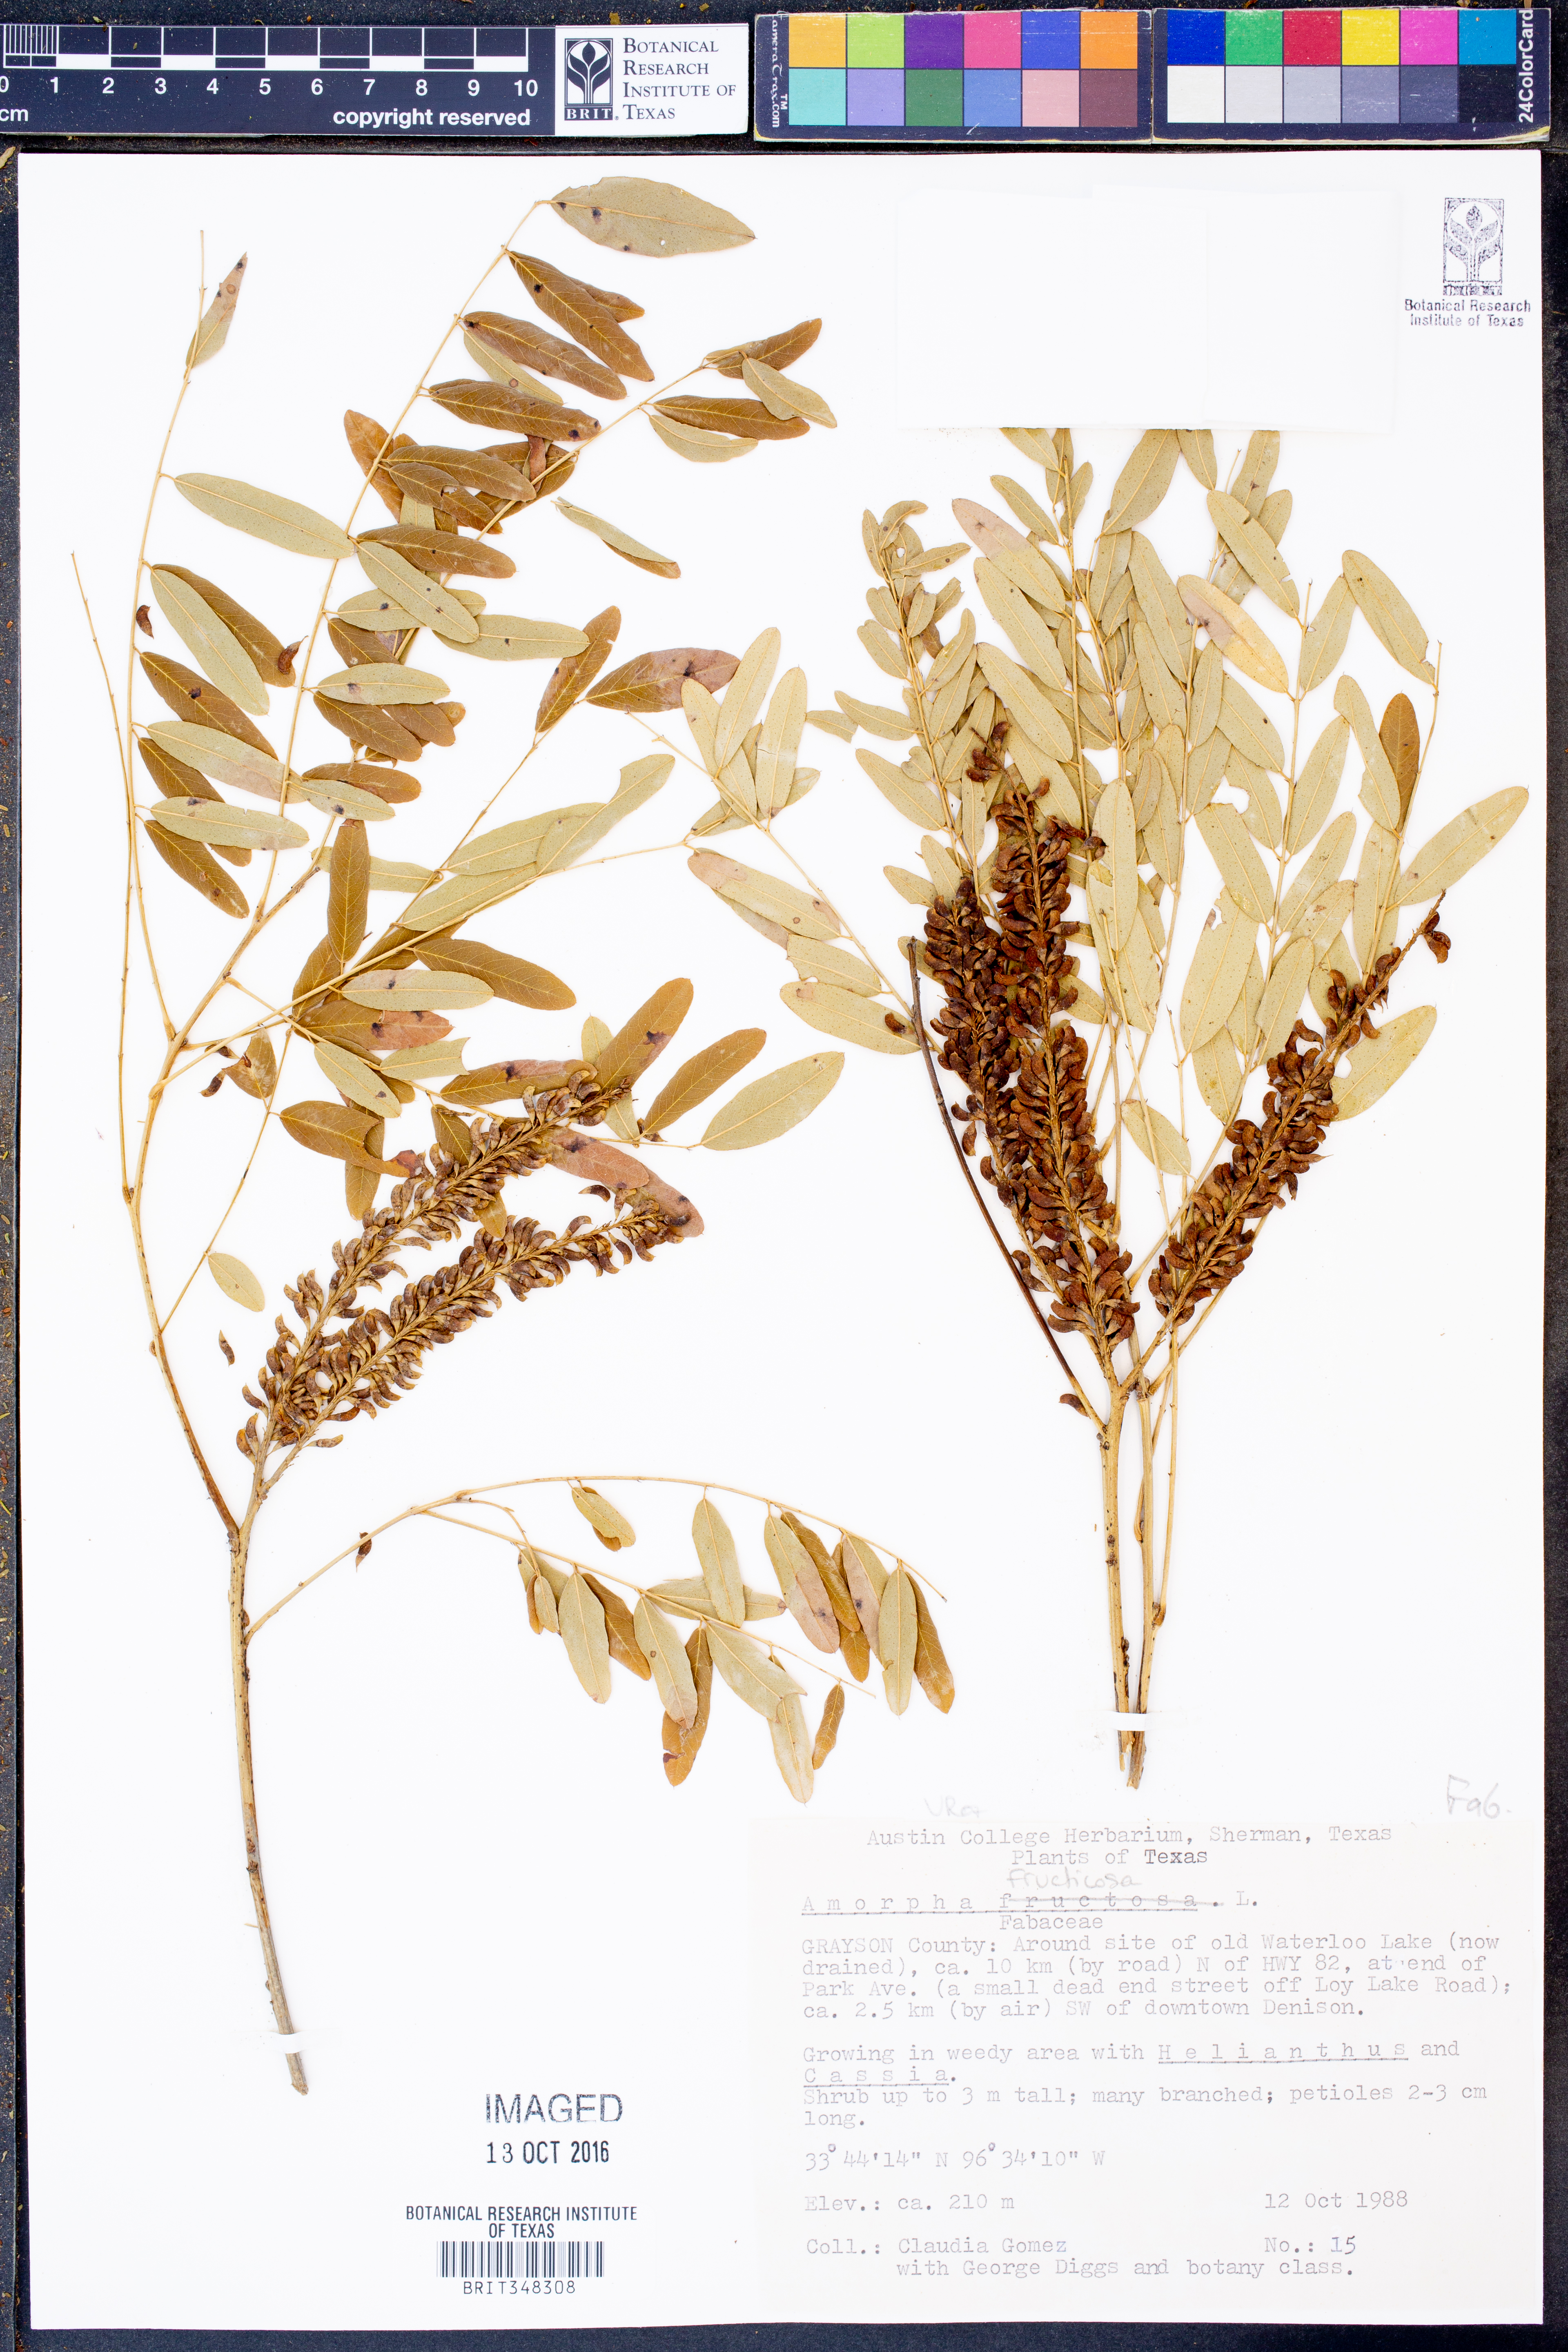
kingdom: Plantae
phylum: Tracheophyta
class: Magnoliopsida
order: Fabales
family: Fabaceae
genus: Amorpha
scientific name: Amorpha fruticosa
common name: False indigo
